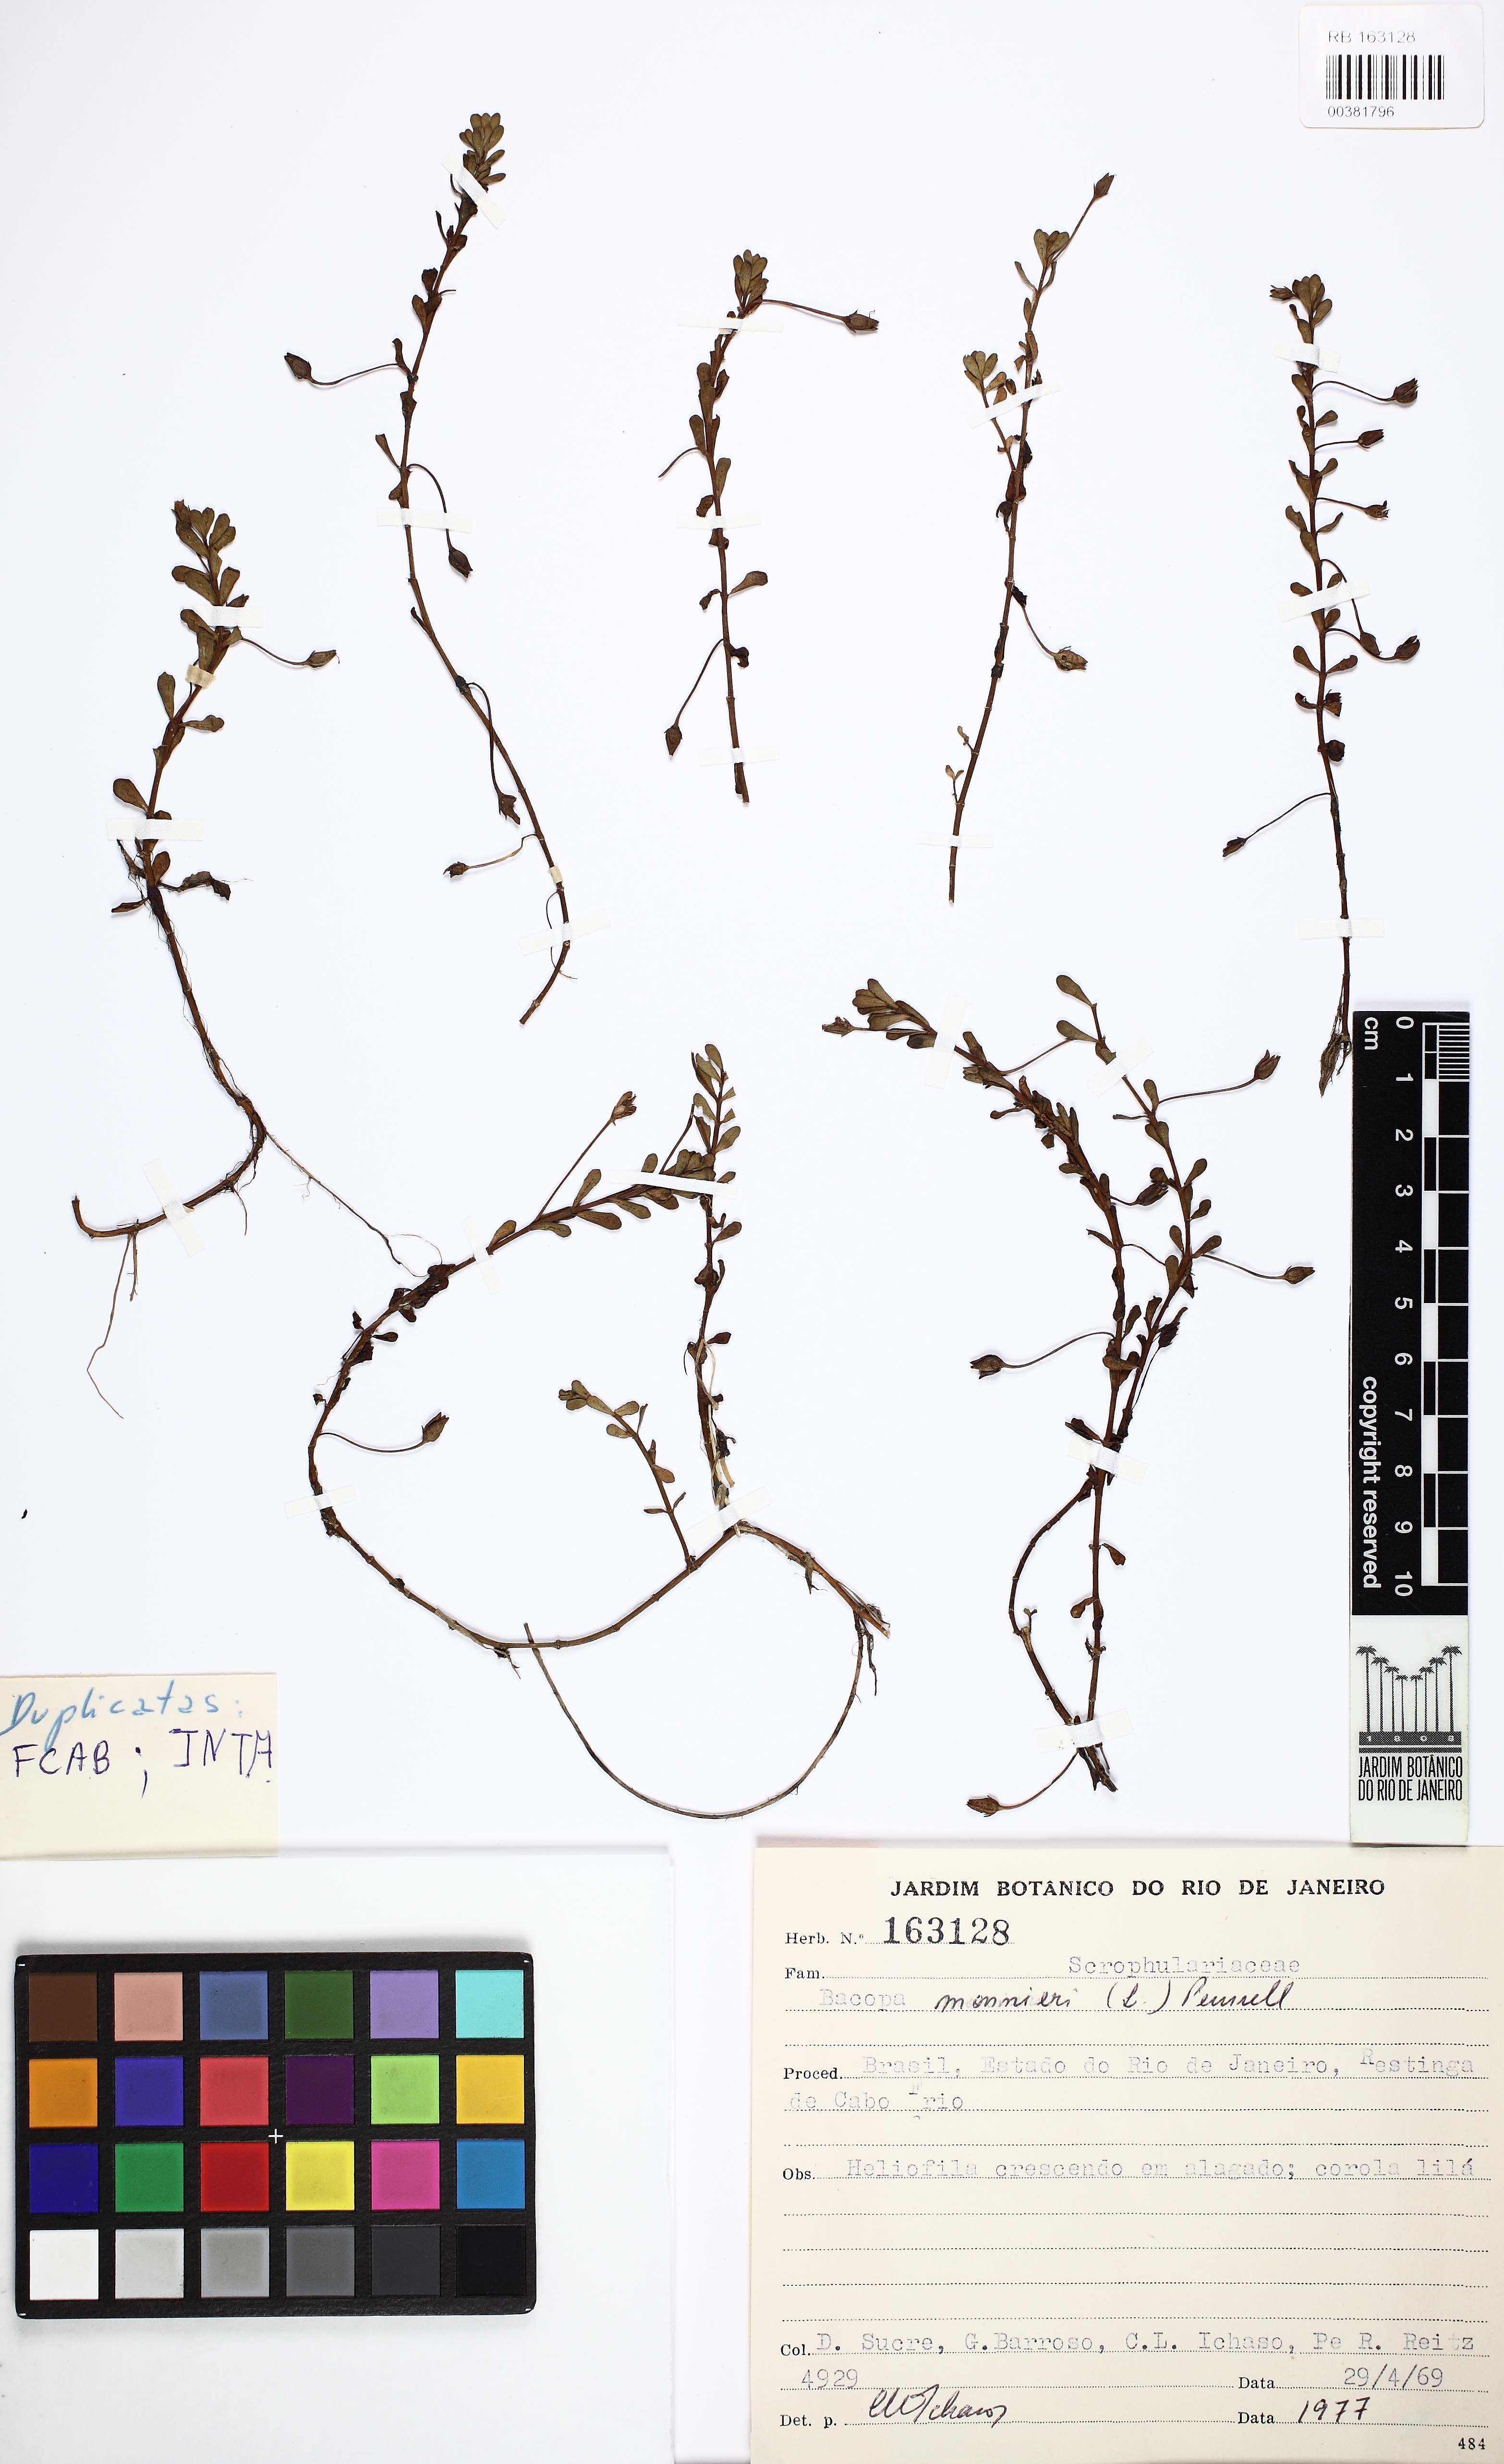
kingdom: Plantae
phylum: Tracheophyta
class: Magnoliopsida
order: Lamiales
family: Plantaginaceae
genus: Bacopa
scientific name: Bacopa monnieri
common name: Indian-pennywort
